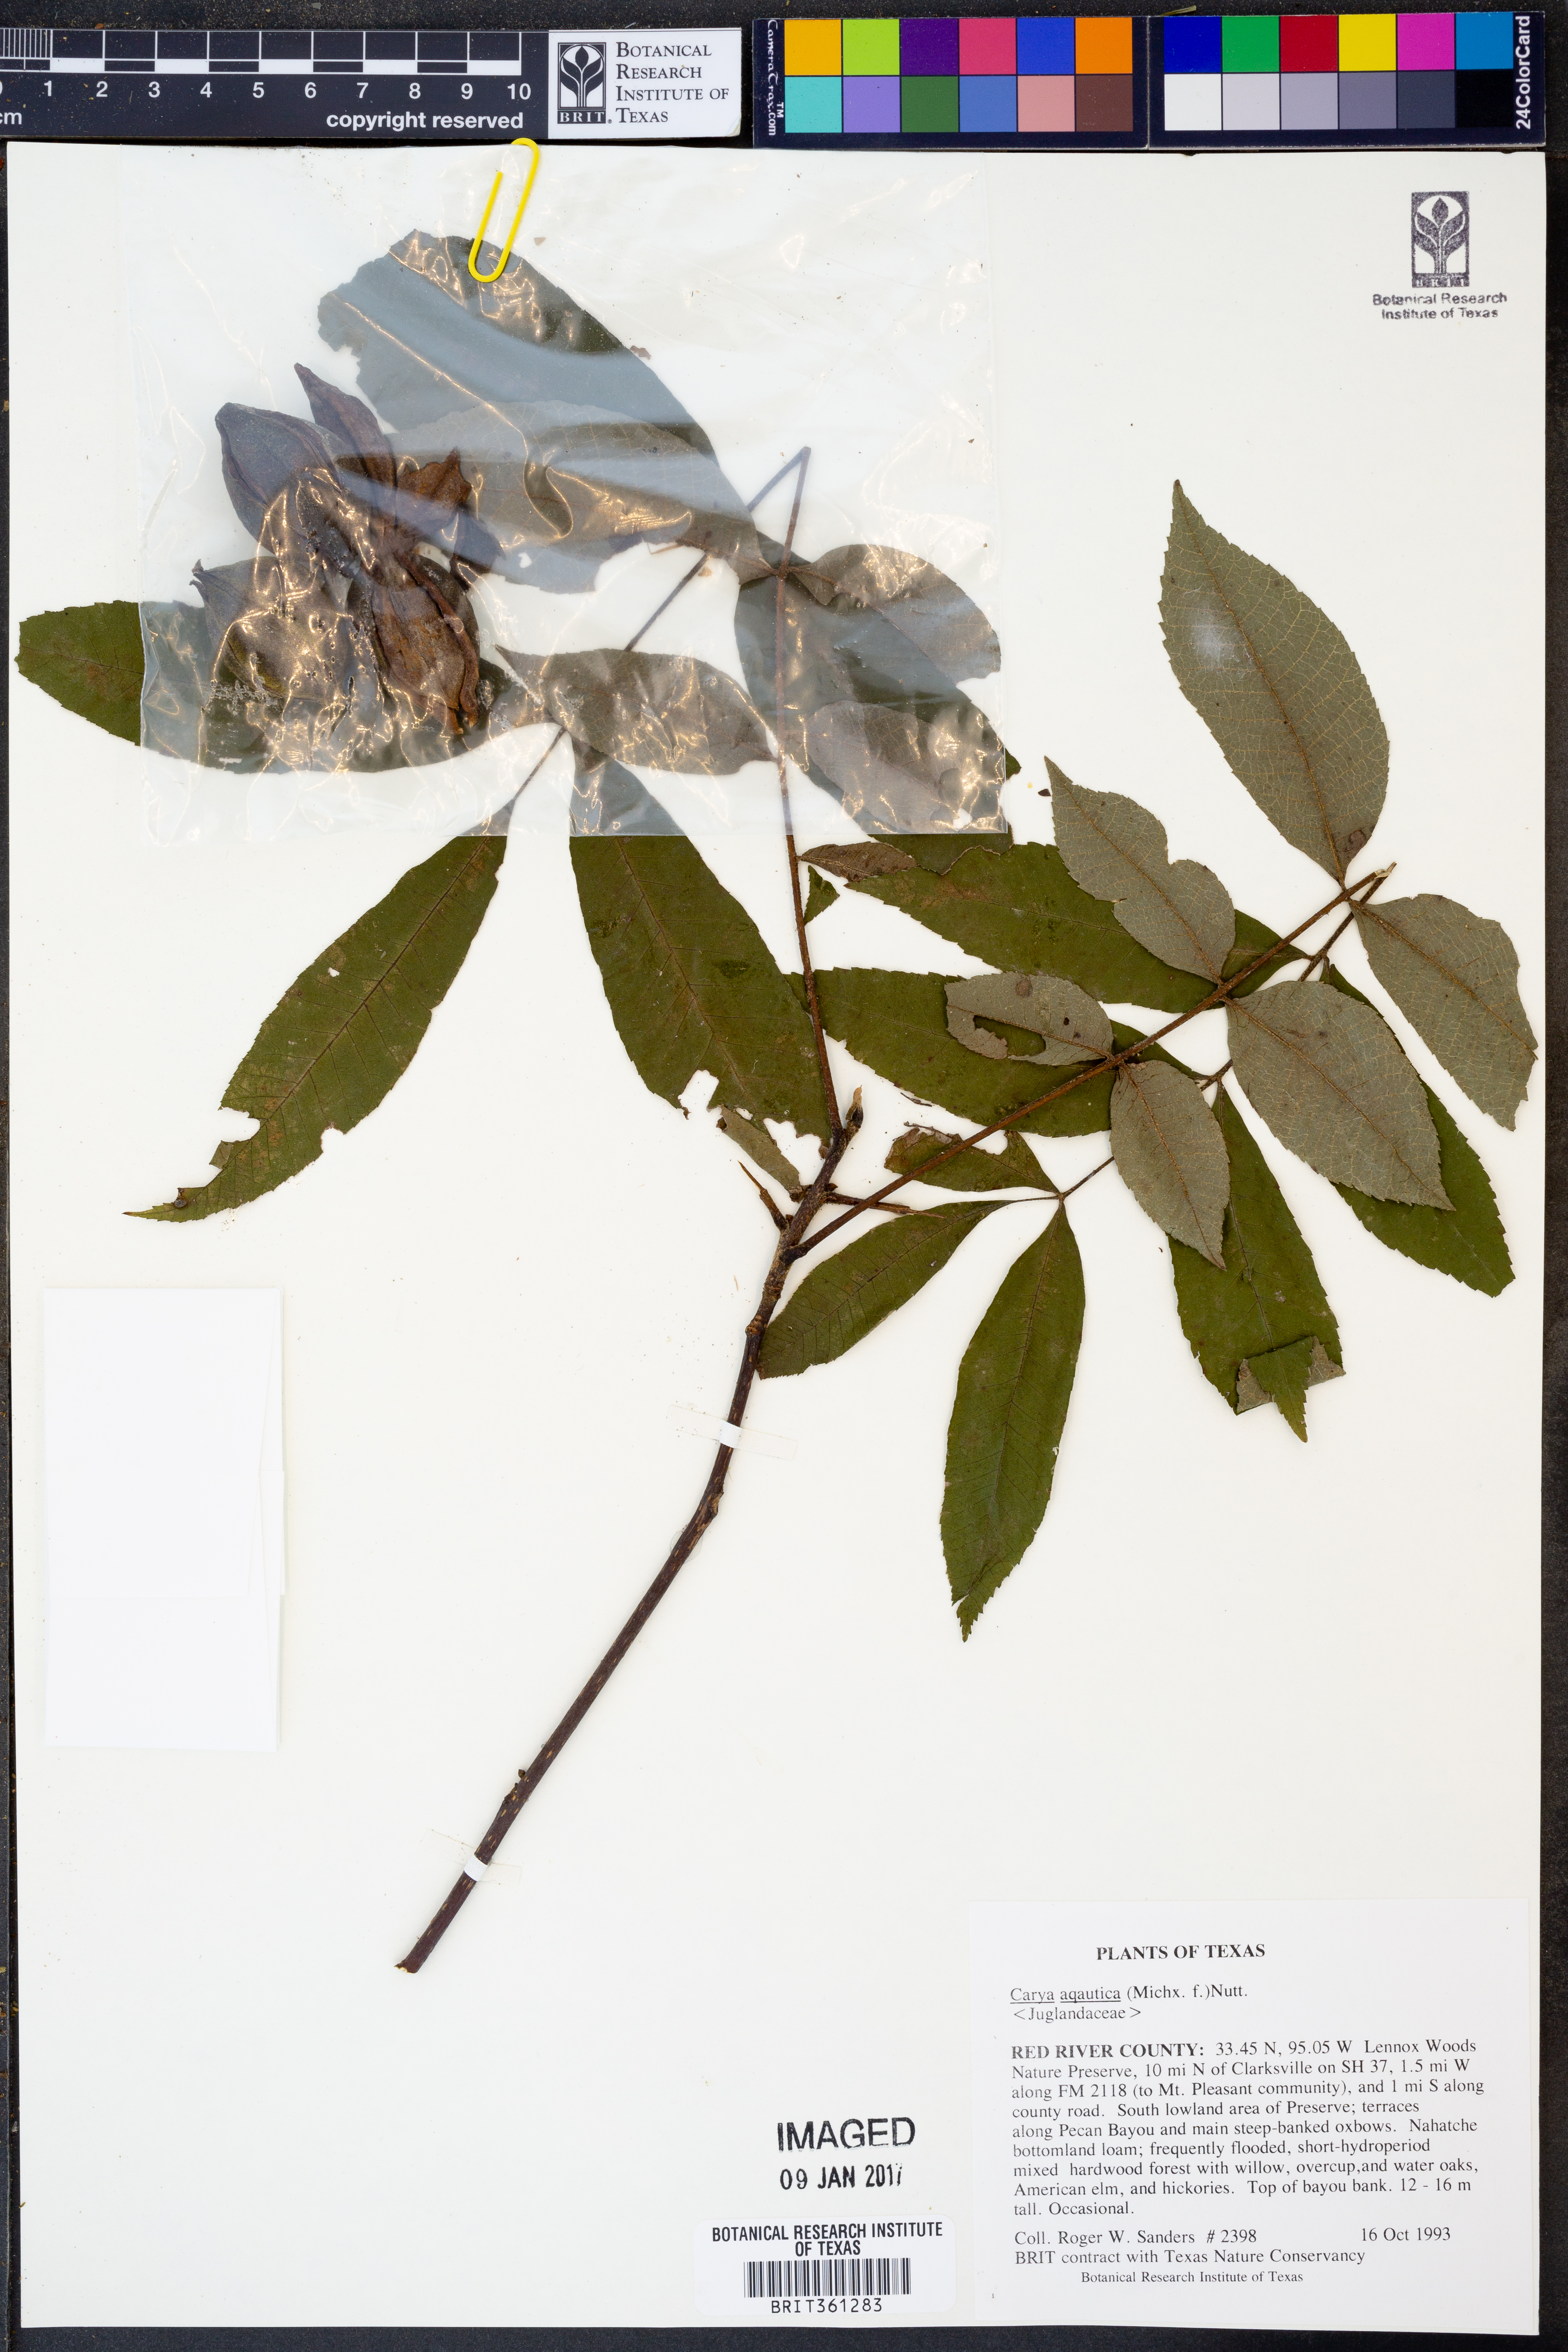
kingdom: Plantae
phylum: Tracheophyta
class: Magnoliopsida
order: Fagales
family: Juglandaceae
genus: Carya
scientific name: Carya aquatica
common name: Water hickory
